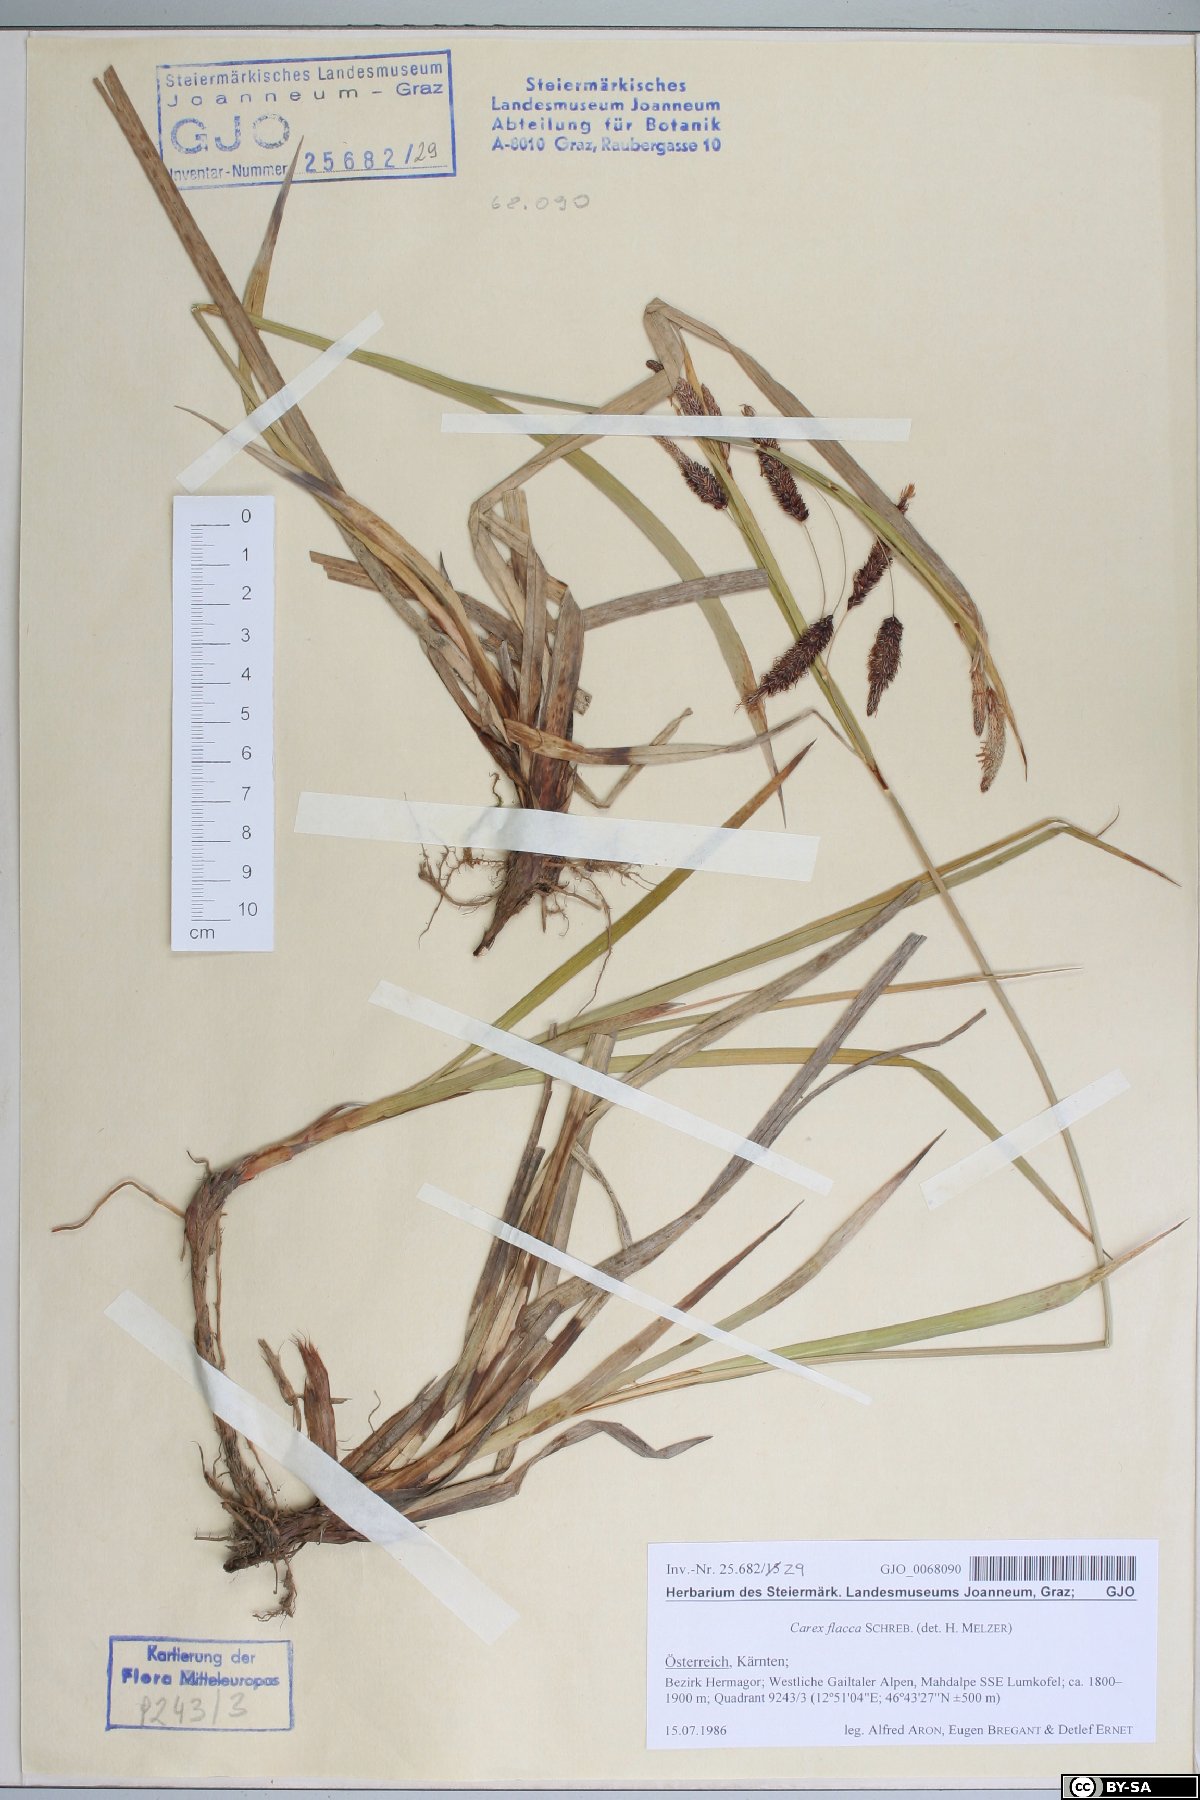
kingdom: Plantae
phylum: Tracheophyta
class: Liliopsida
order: Poales
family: Cyperaceae
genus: Carex
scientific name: Carex flacca
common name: Glaucous sedge
